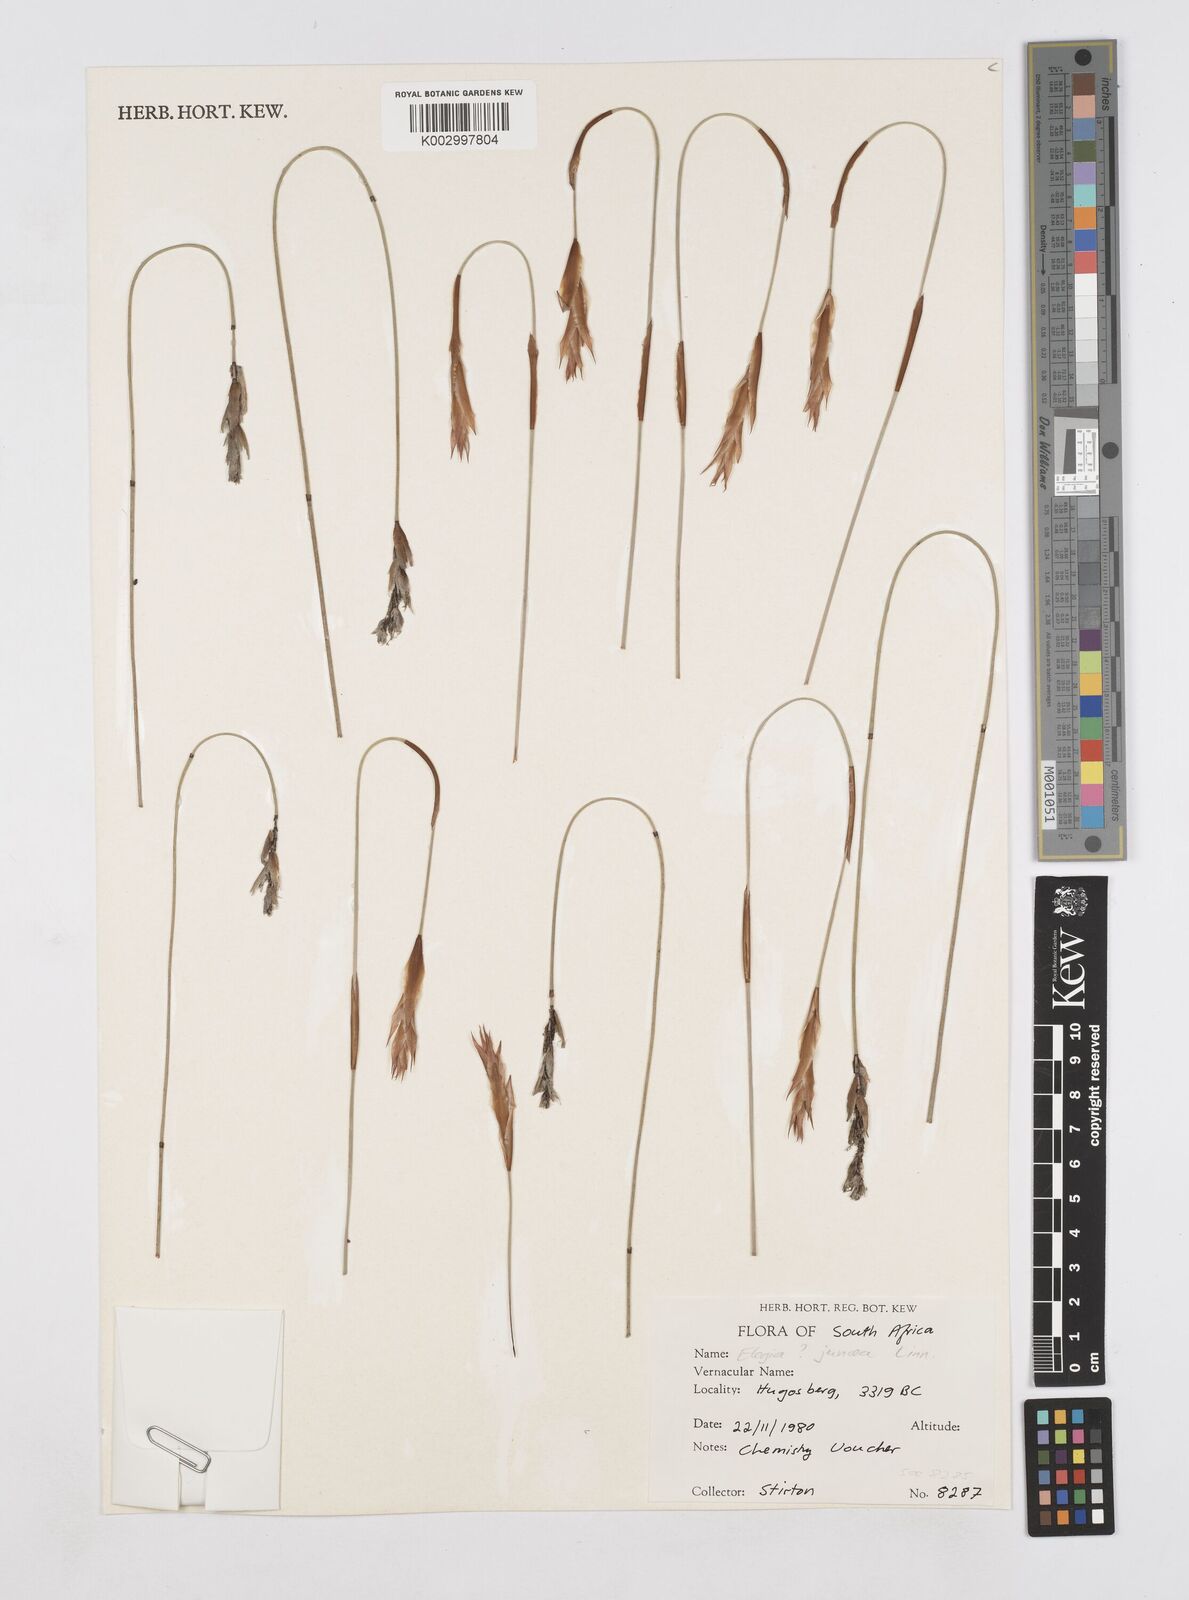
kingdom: Plantae
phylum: Tracheophyta
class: Liliopsida
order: Poales
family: Restionaceae
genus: Elegia
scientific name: Elegia juncea
